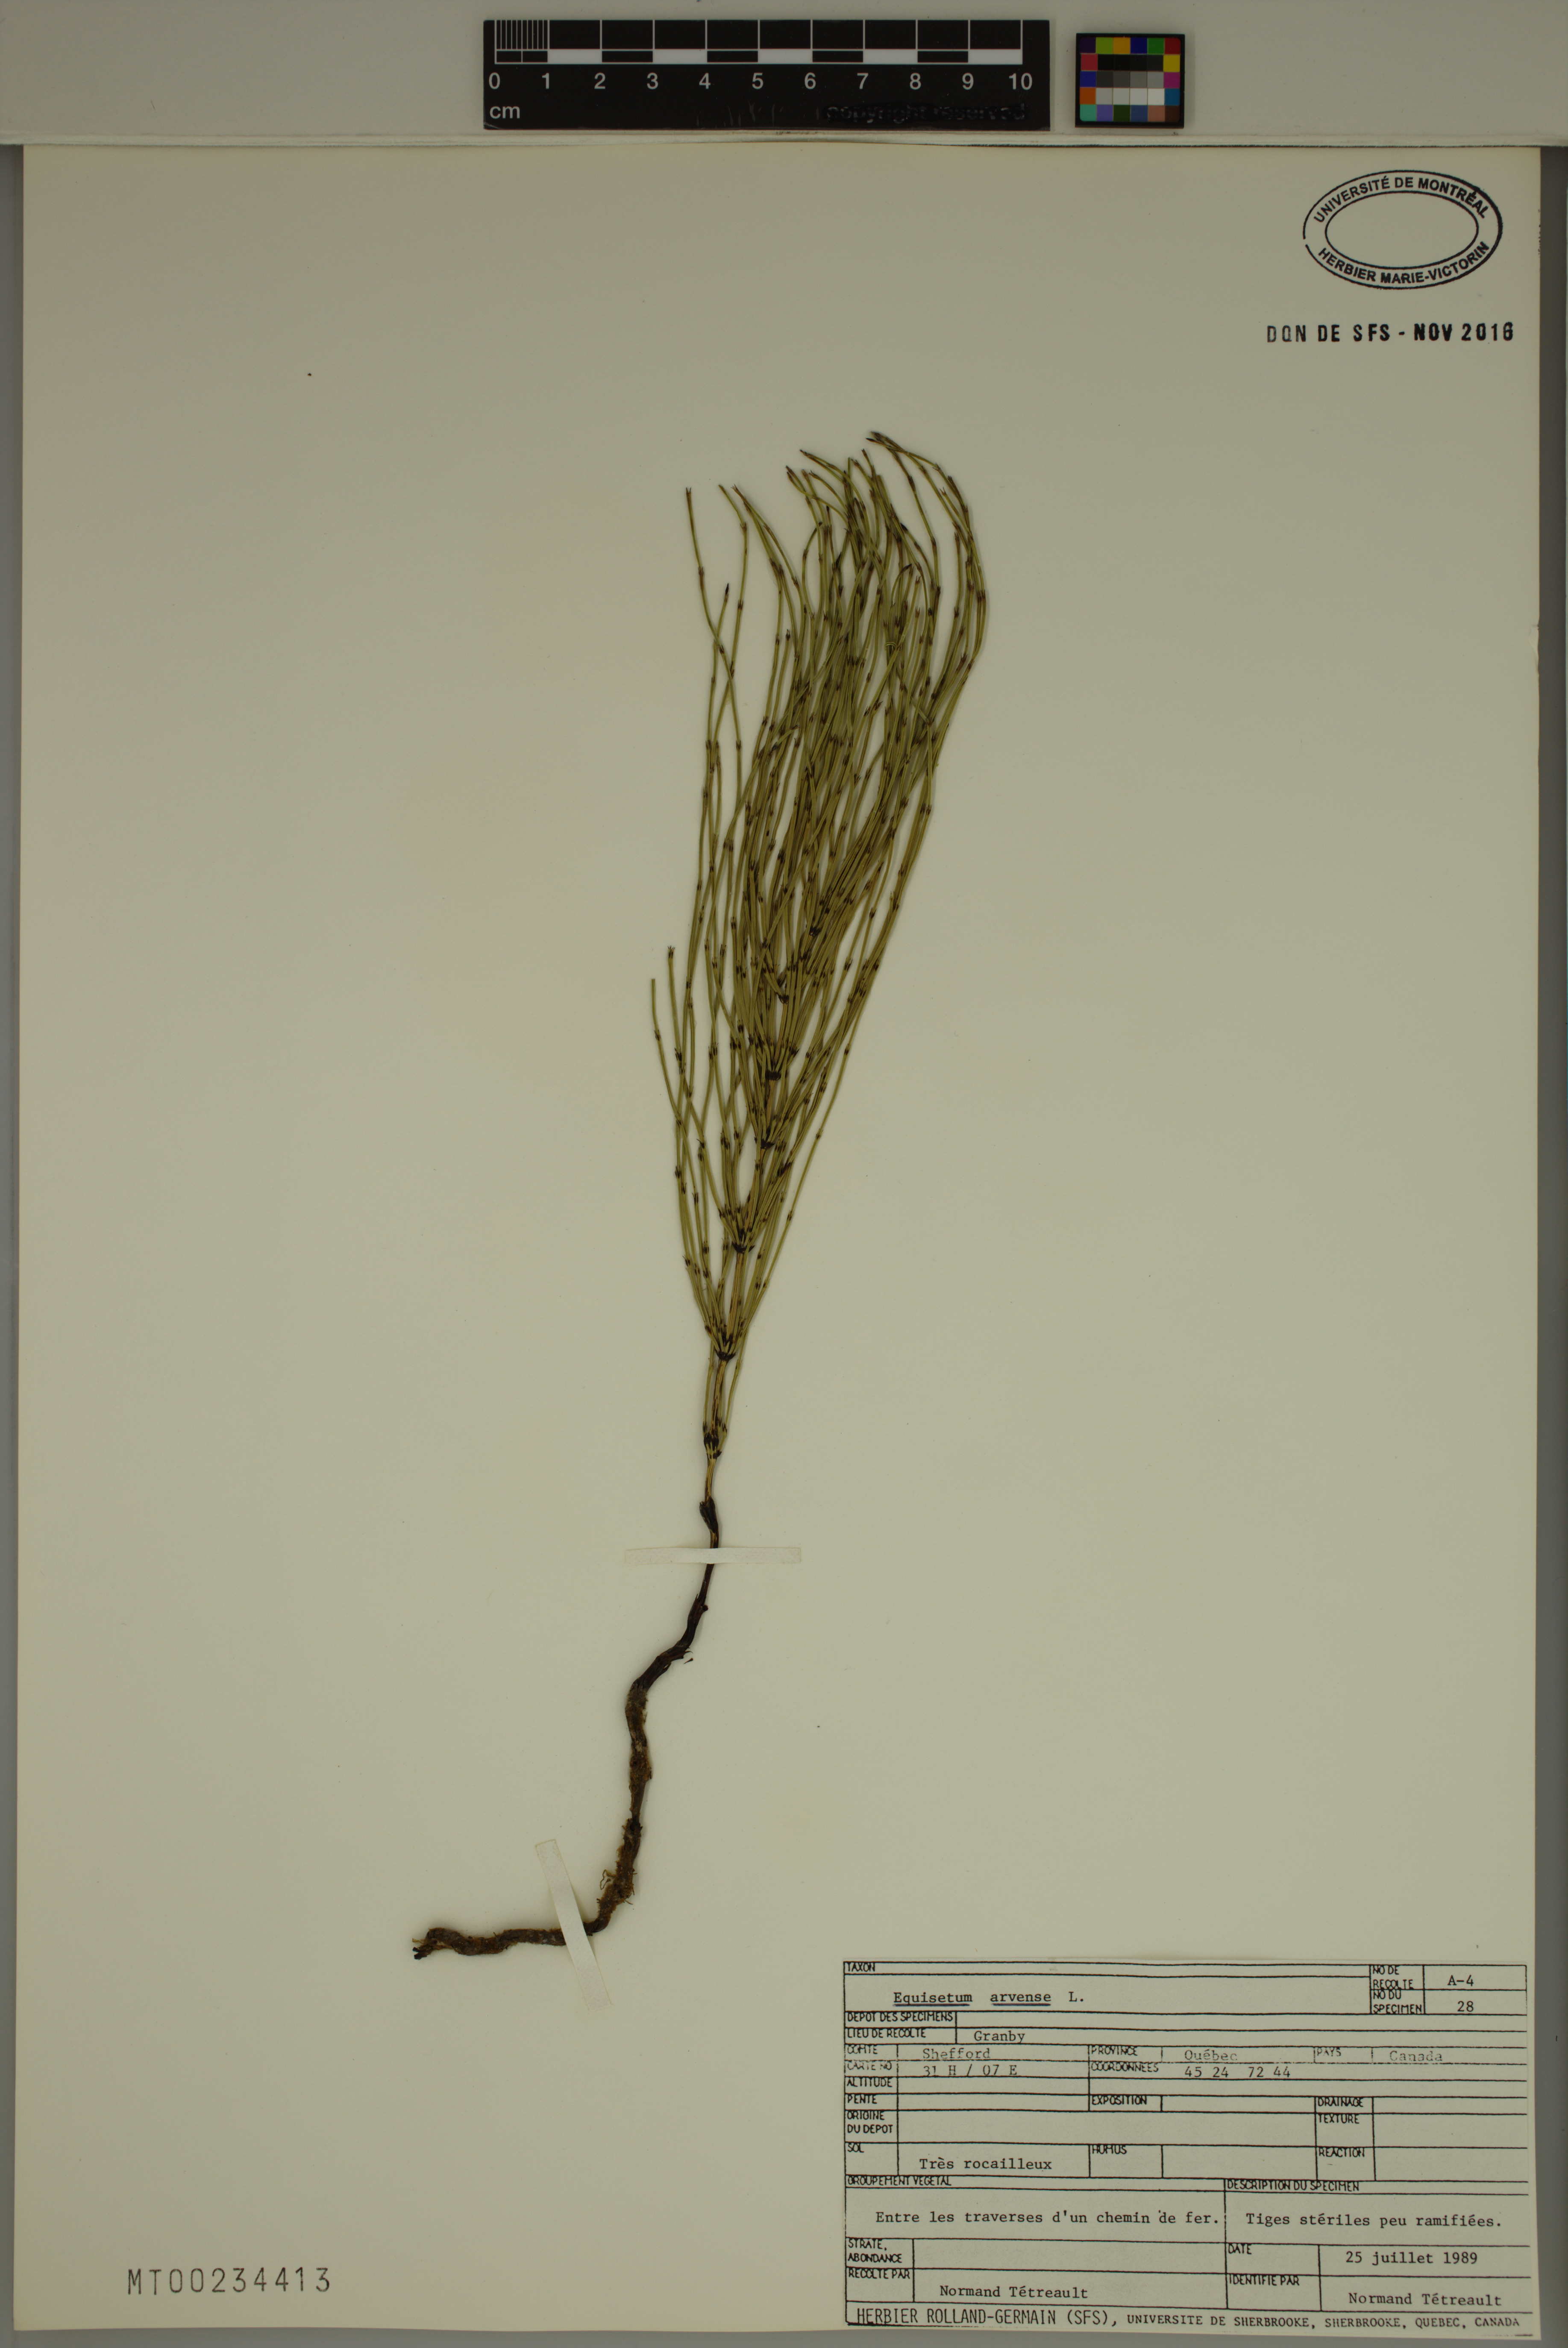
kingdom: Plantae
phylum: Tracheophyta
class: Polypodiopsida
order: Equisetales
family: Equisetaceae
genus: Equisetum
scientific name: Equisetum arvense
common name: Field horsetail
